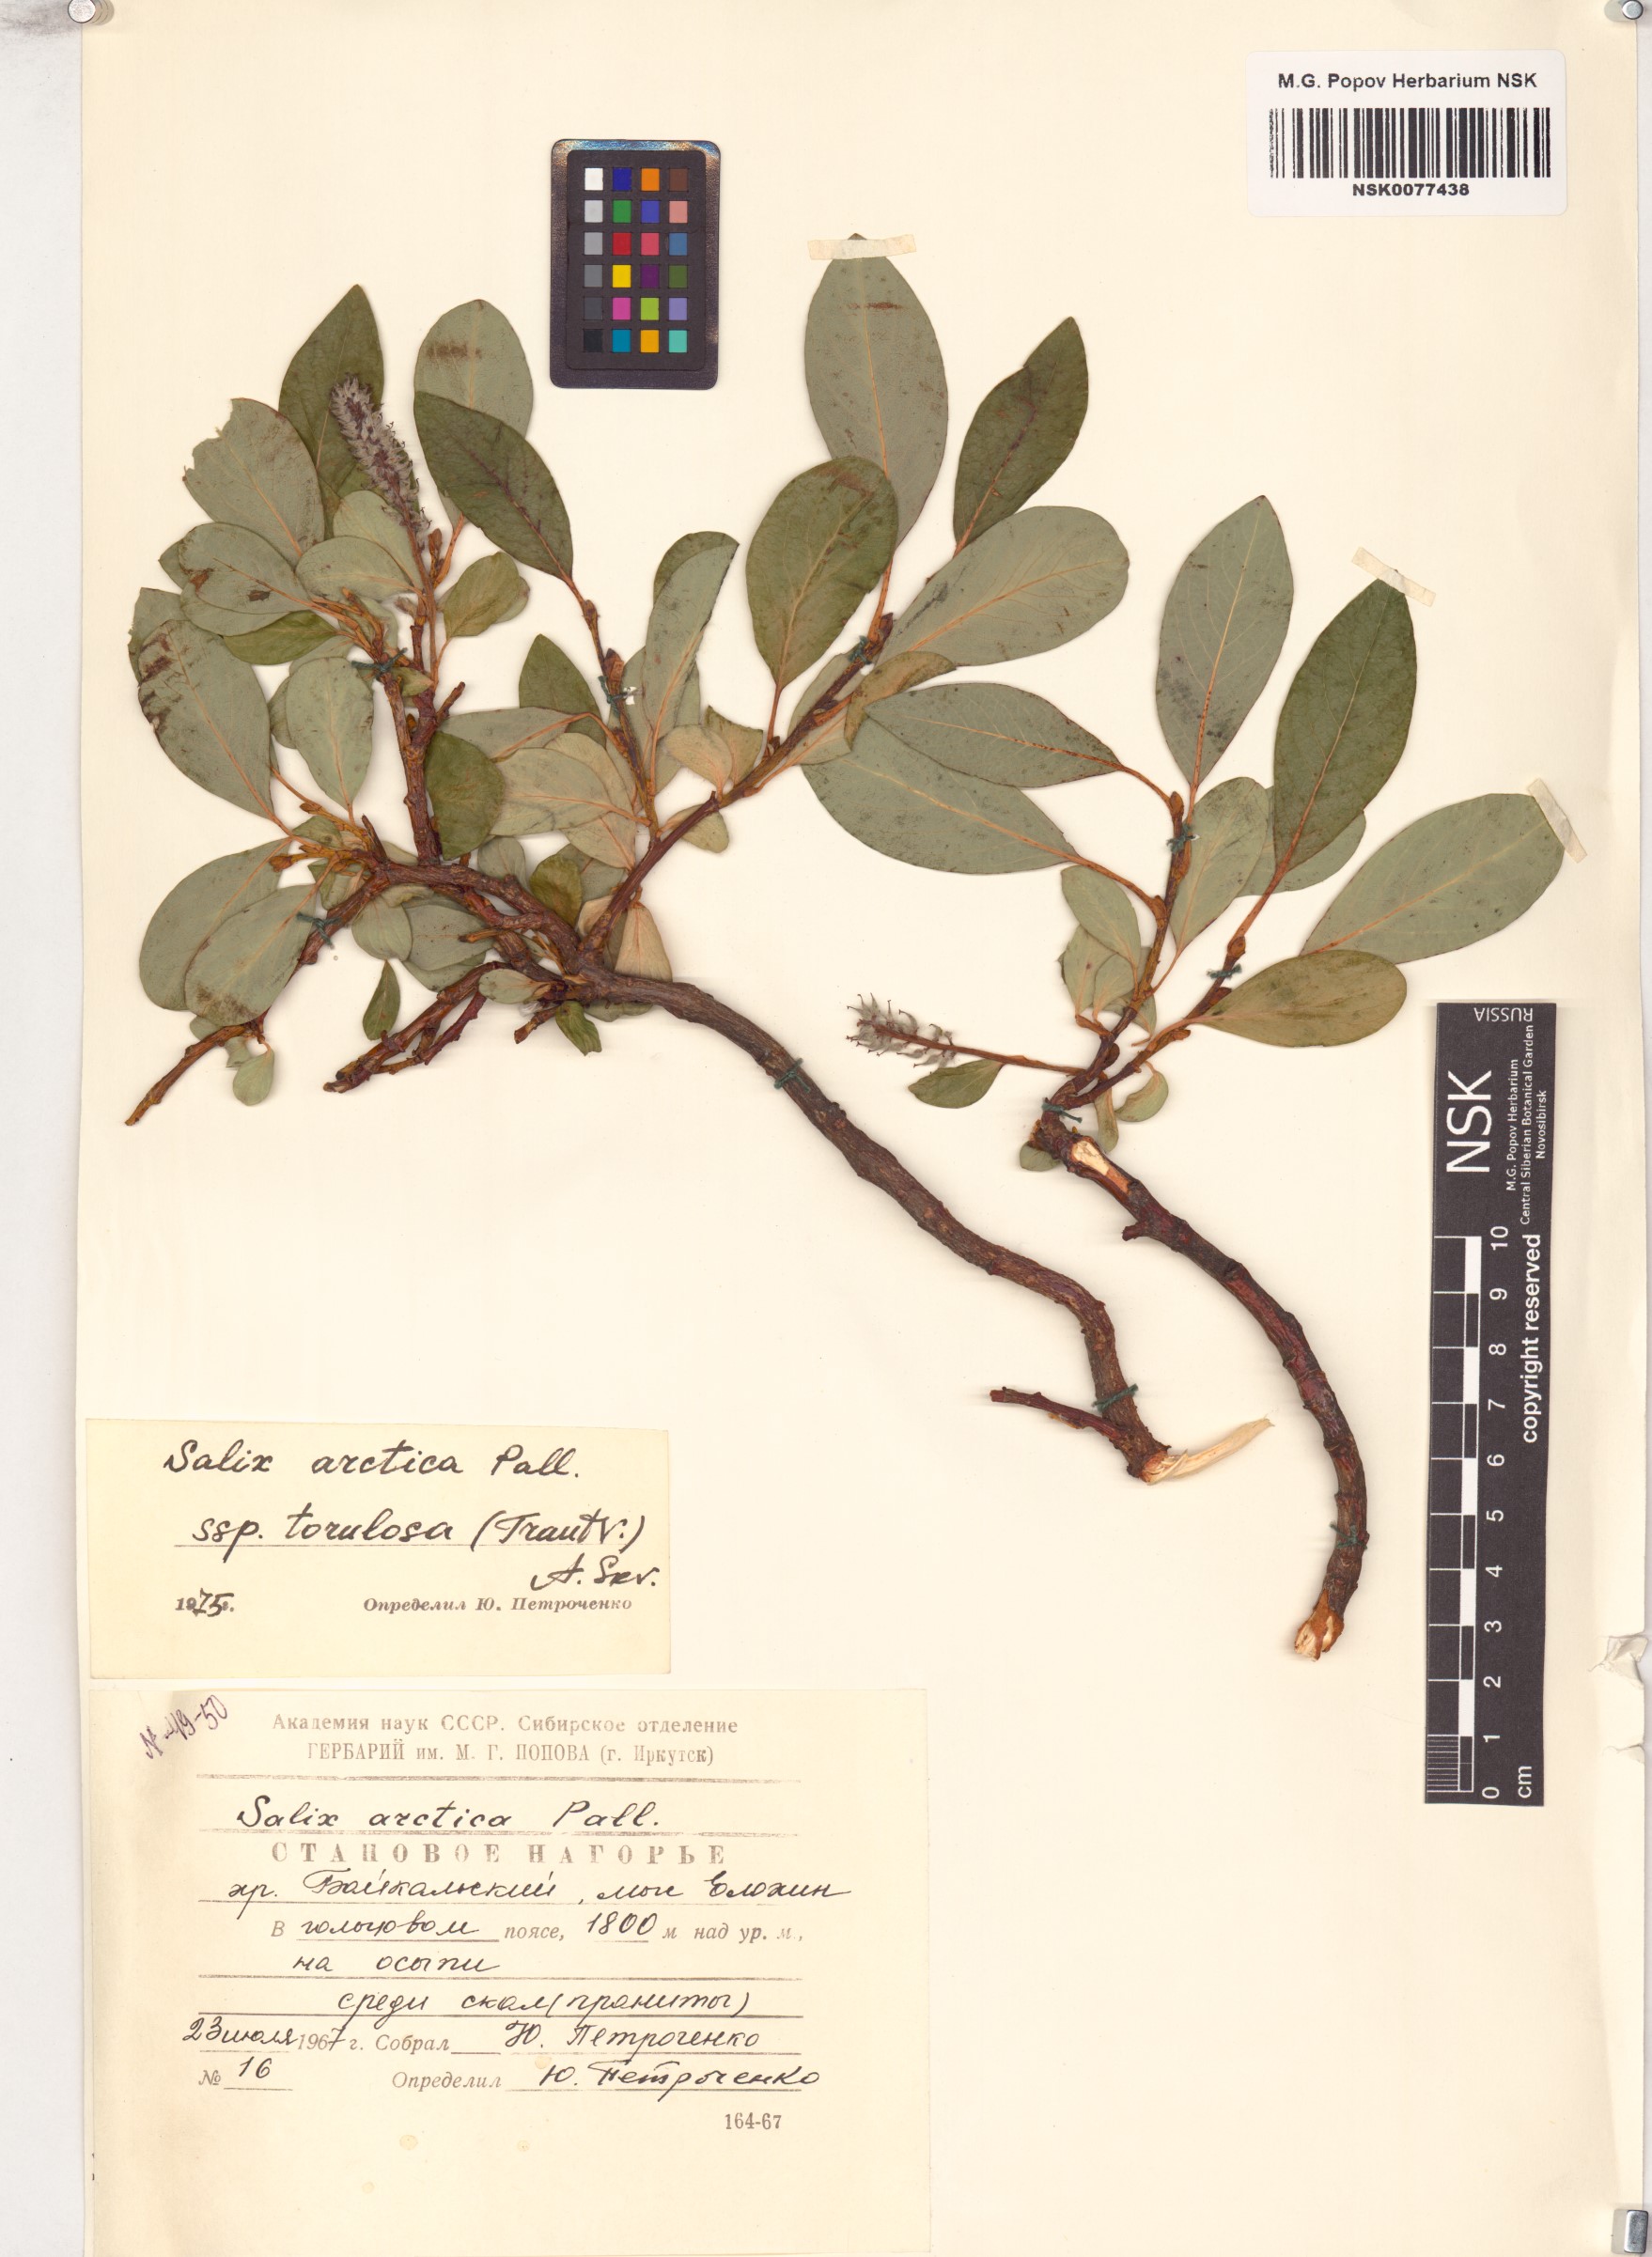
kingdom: Plantae
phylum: Tracheophyta
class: Magnoliopsida
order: Malpighiales
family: Salicaceae
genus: Salix
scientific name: Salix arctica
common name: Arctic willow
